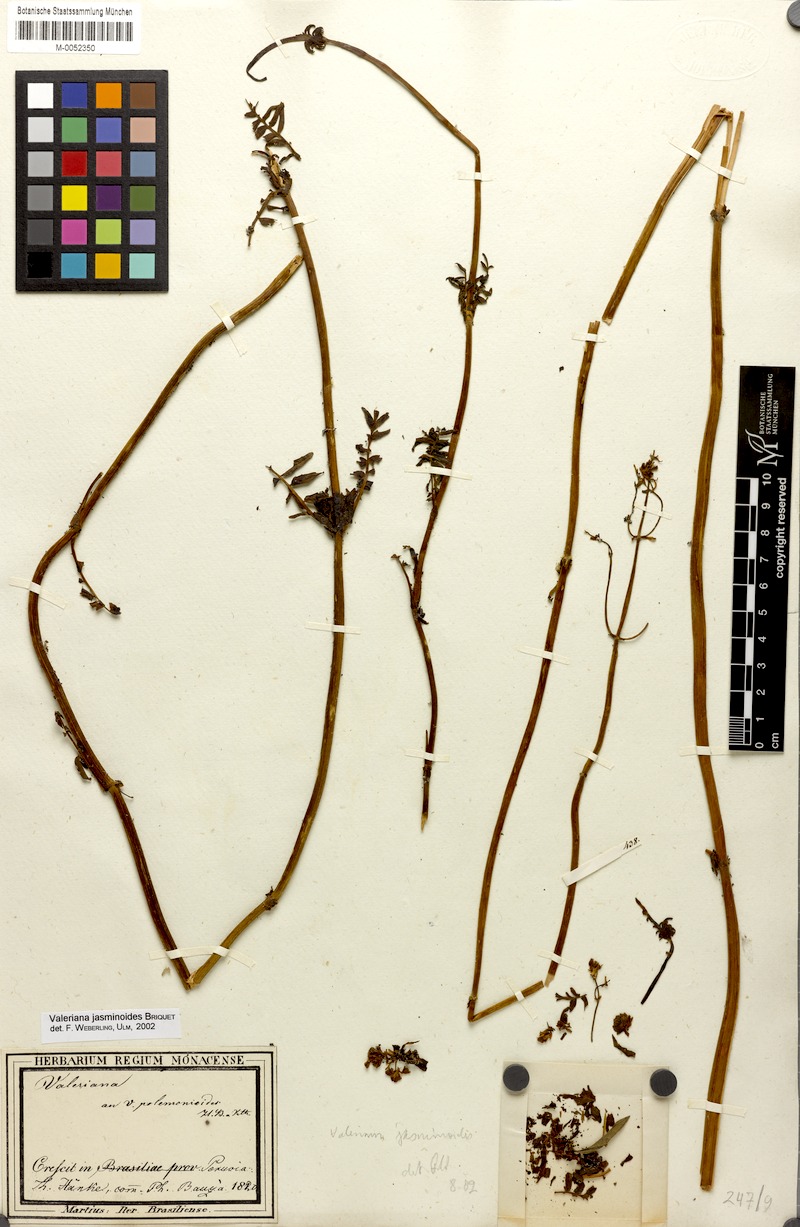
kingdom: Plantae
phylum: Tracheophyta
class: Magnoliopsida
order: Dipsacales
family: Caprifoliaceae
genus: Valeriana
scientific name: Valeriana jasminoides
